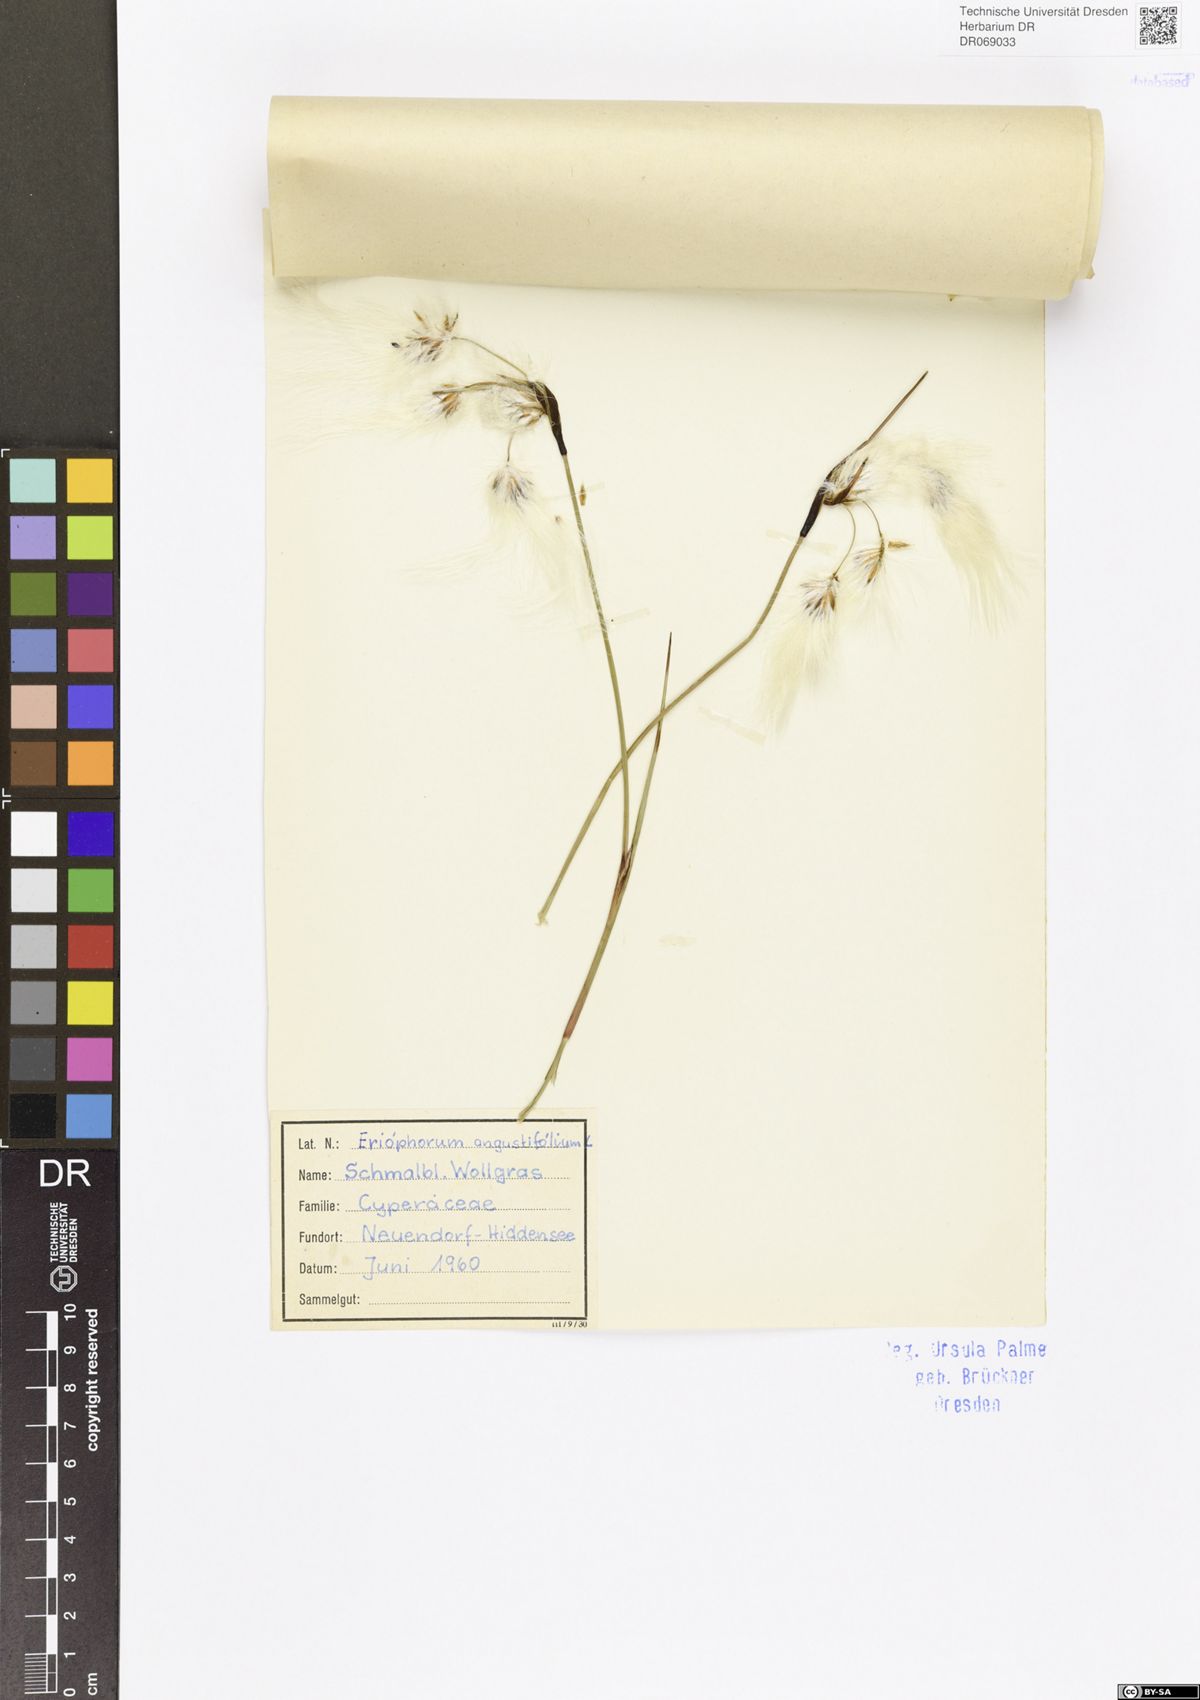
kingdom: Plantae
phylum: Tracheophyta
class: Liliopsida
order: Poales
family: Cyperaceae
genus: Eriophorum
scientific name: Eriophorum angustifolium
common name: Common cottongrass
